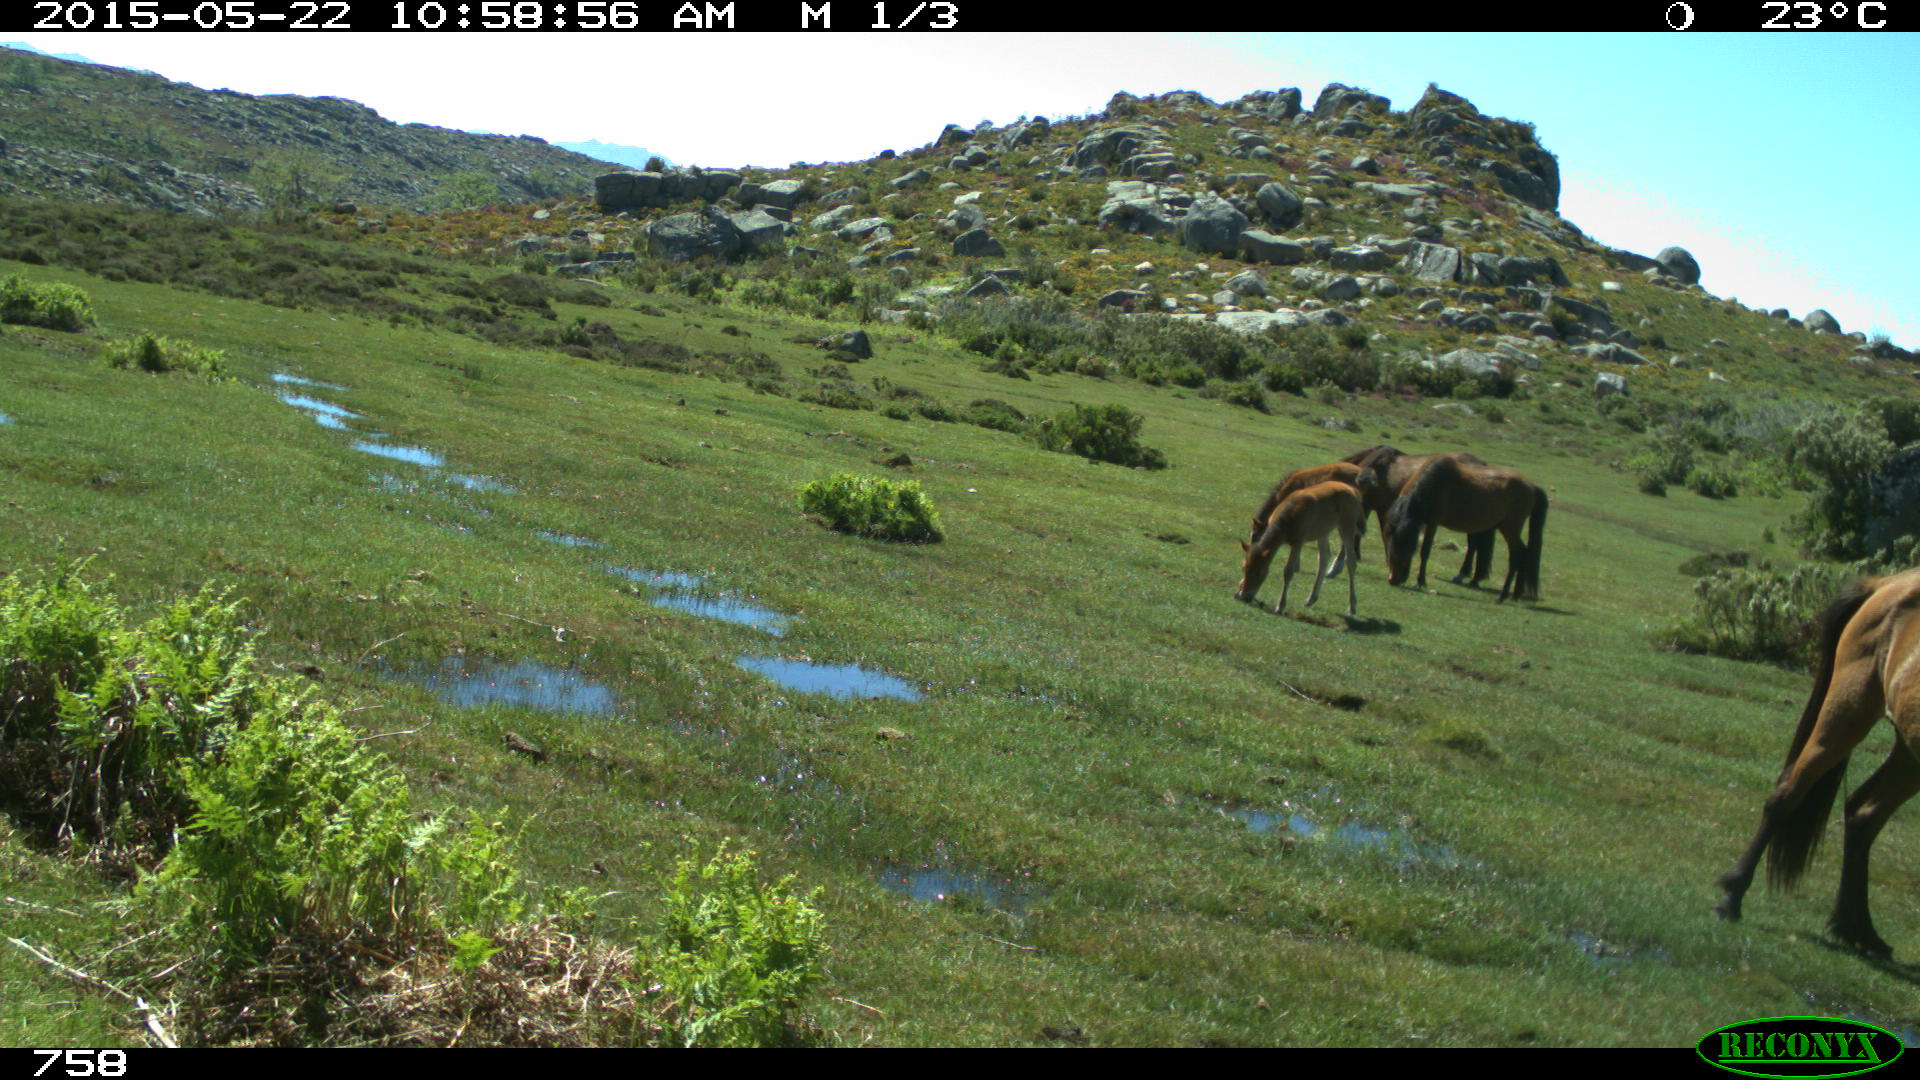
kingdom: Animalia
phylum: Chordata
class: Mammalia
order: Perissodactyla
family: Equidae
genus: Equus
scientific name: Equus caballus
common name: Horse
